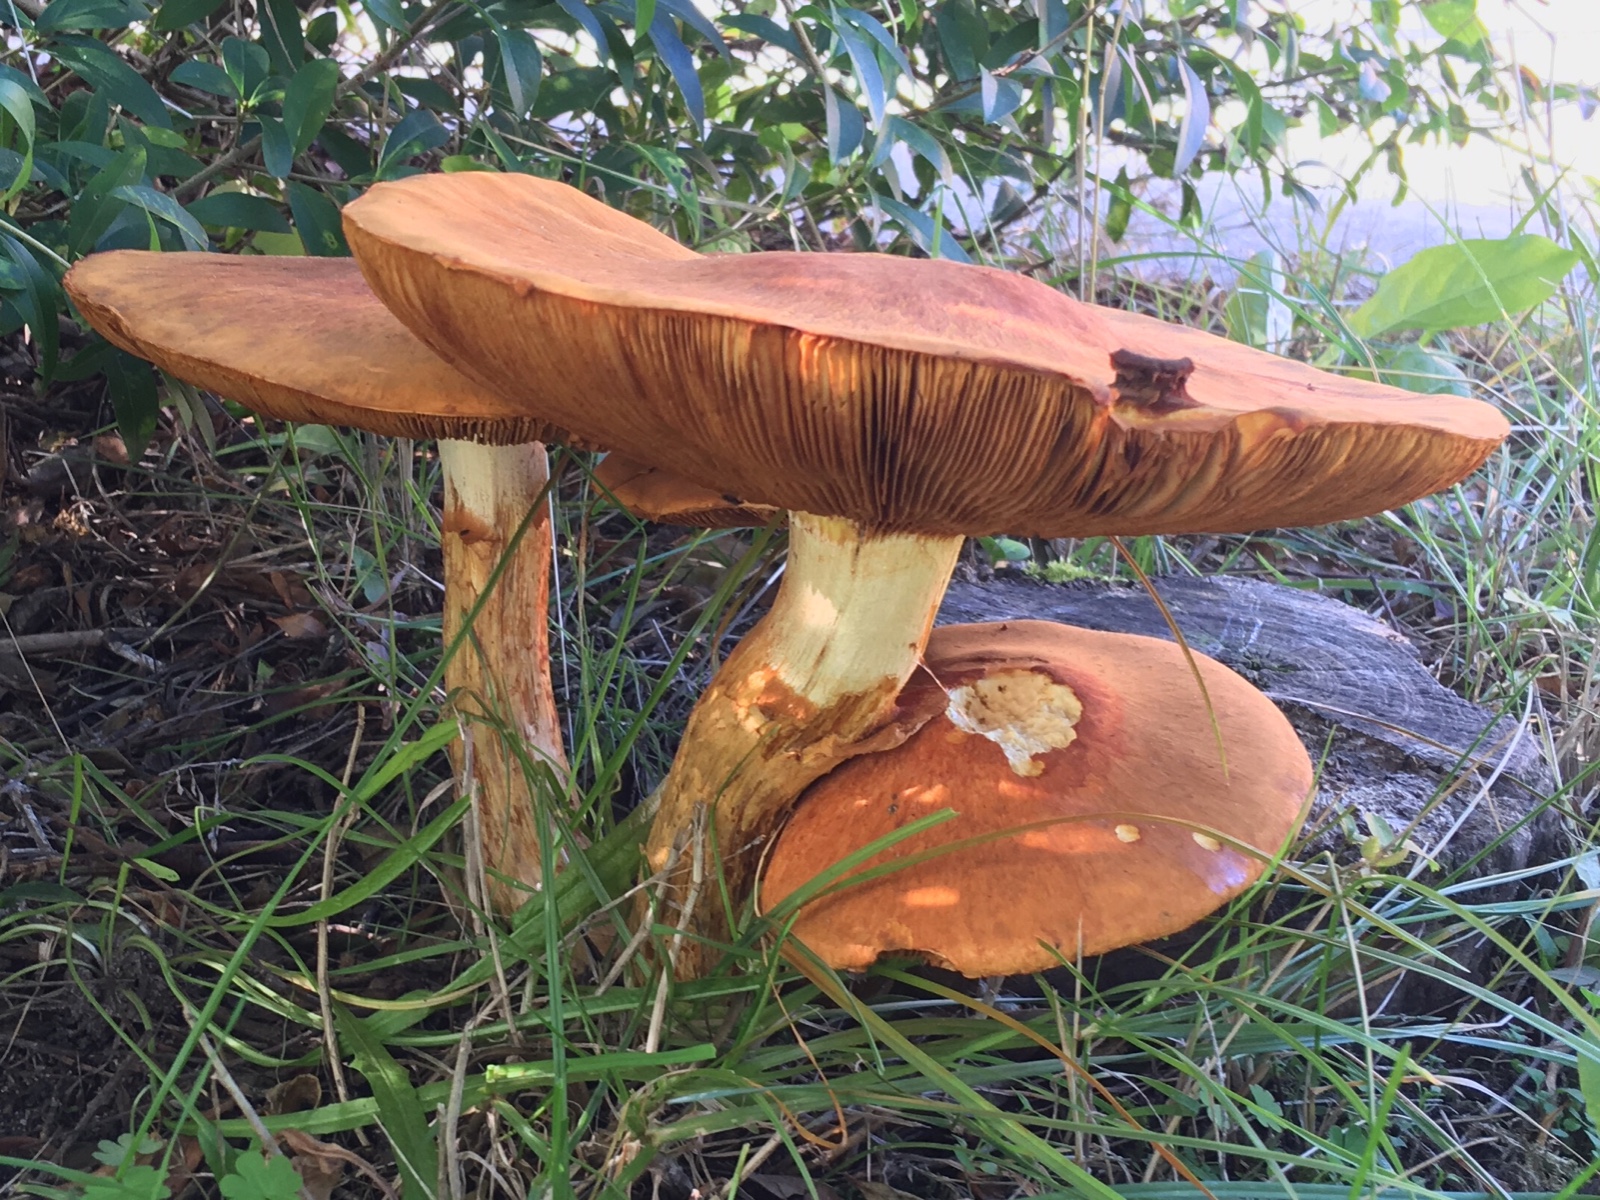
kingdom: Fungi
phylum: Basidiomycota
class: Agaricomycetes
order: Agaricales
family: Hymenogastraceae
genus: Gymnopilus
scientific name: Gymnopilus spectabilis
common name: fibret flammehat
